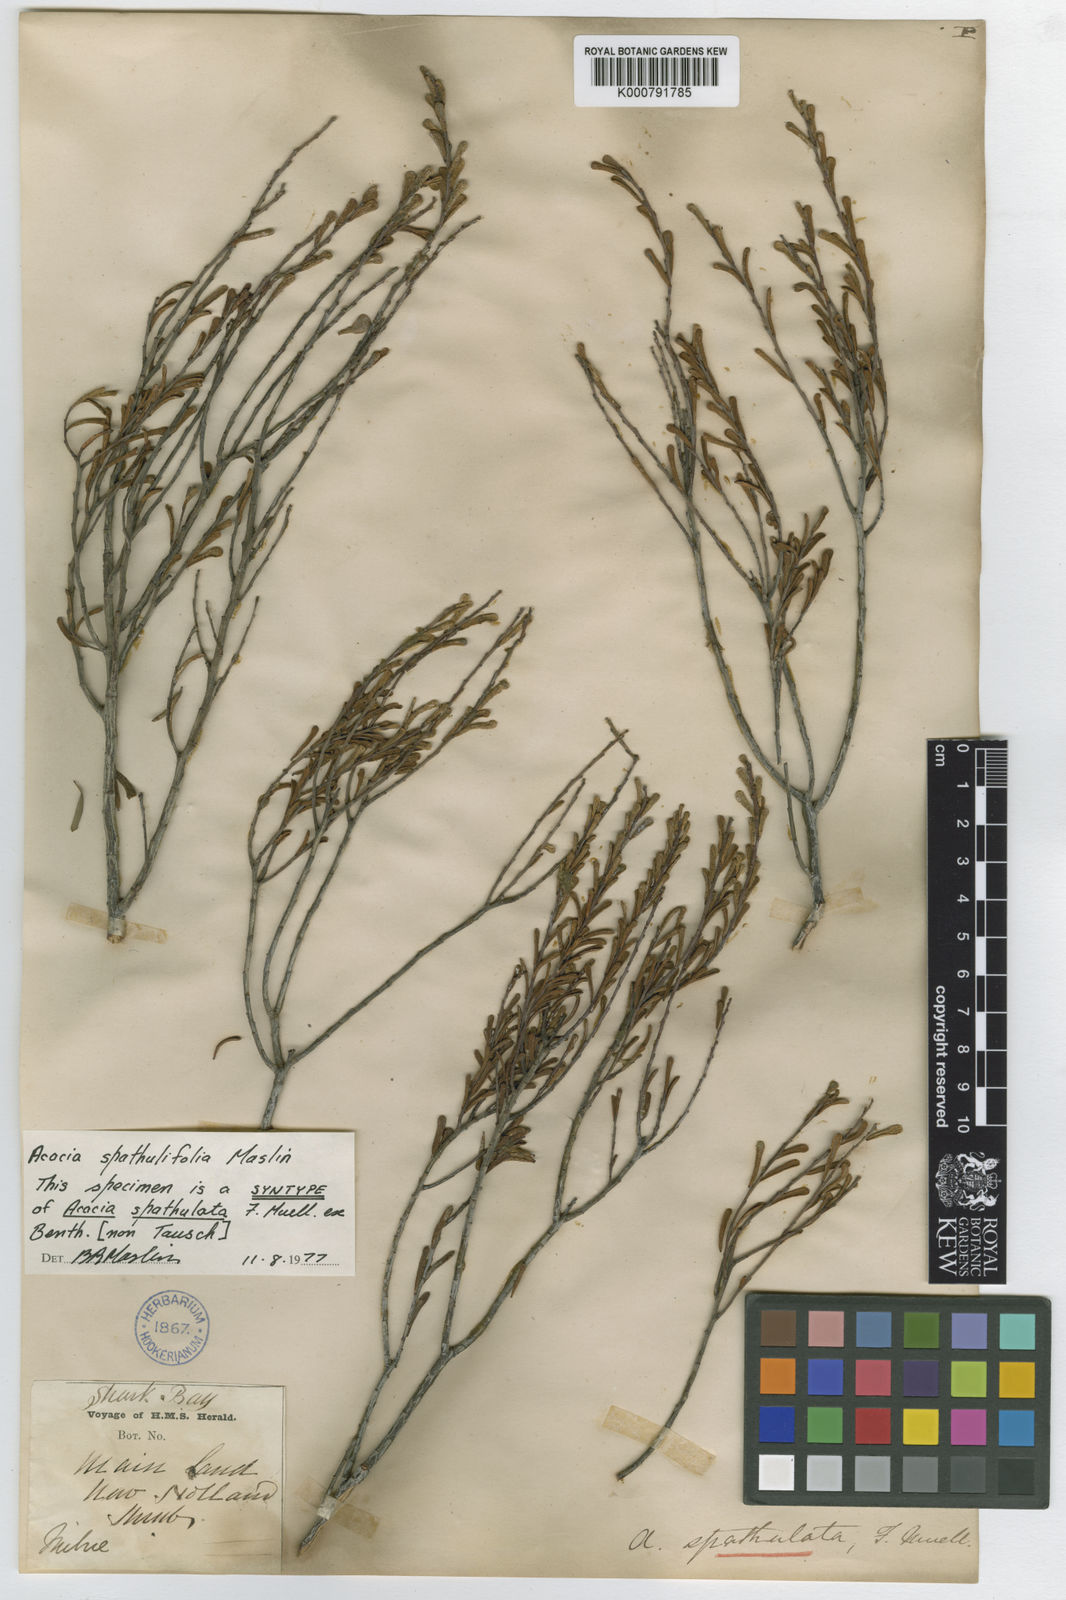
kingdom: Plantae
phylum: Tracheophyta
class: Magnoliopsida
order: Fabales
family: Fabaceae
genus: Acacia
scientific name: Acacia spathulifolia
